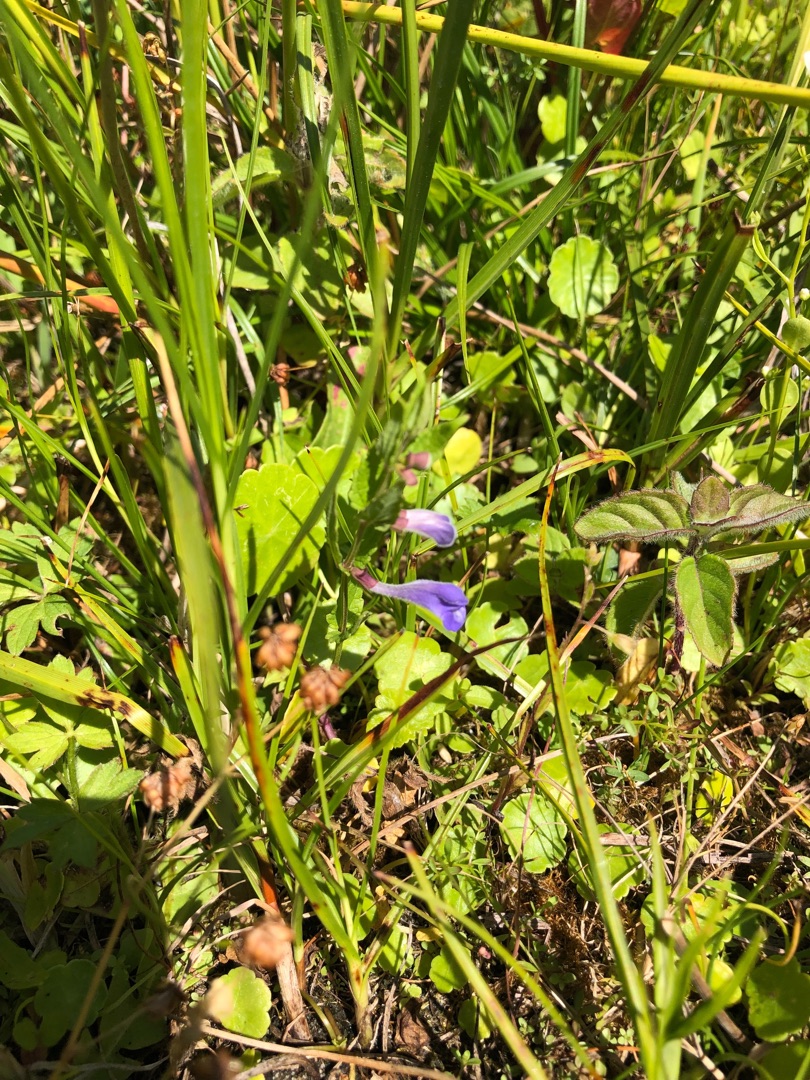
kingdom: Plantae
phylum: Tracheophyta
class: Magnoliopsida
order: Lamiales
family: Lamiaceae
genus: Scutellaria
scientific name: Scutellaria galericulata
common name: Almindelig skjolddrager
